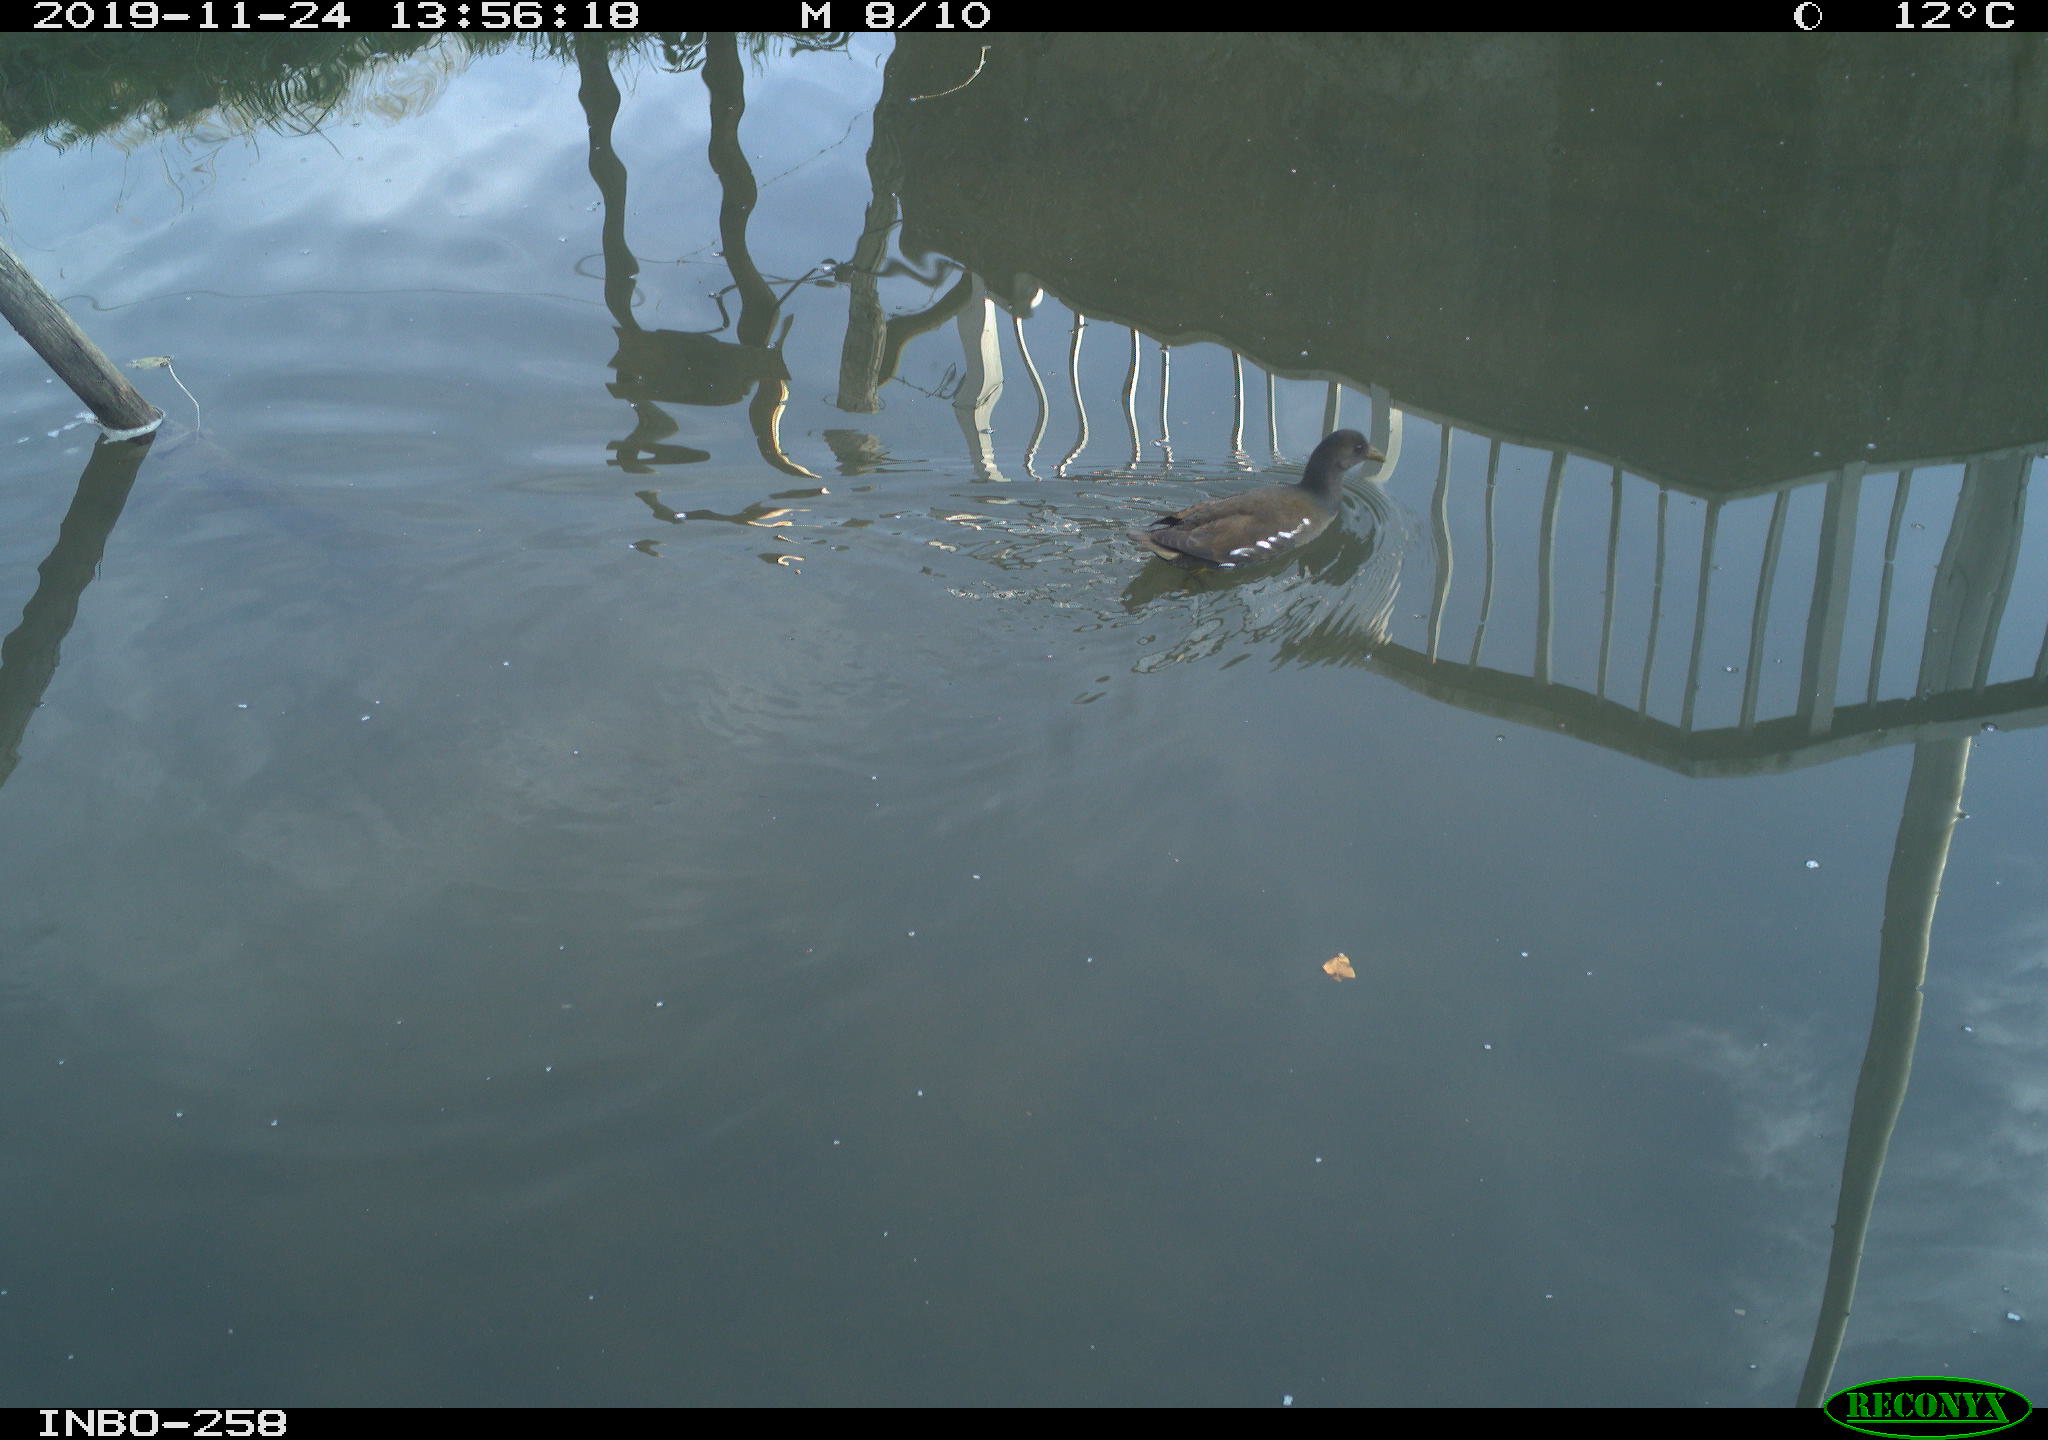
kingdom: Animalia
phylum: Chordata
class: Aves
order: Gruiformes
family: Rallidae
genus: Gallinula
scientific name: Gallinula chloropus
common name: Common moorhen
